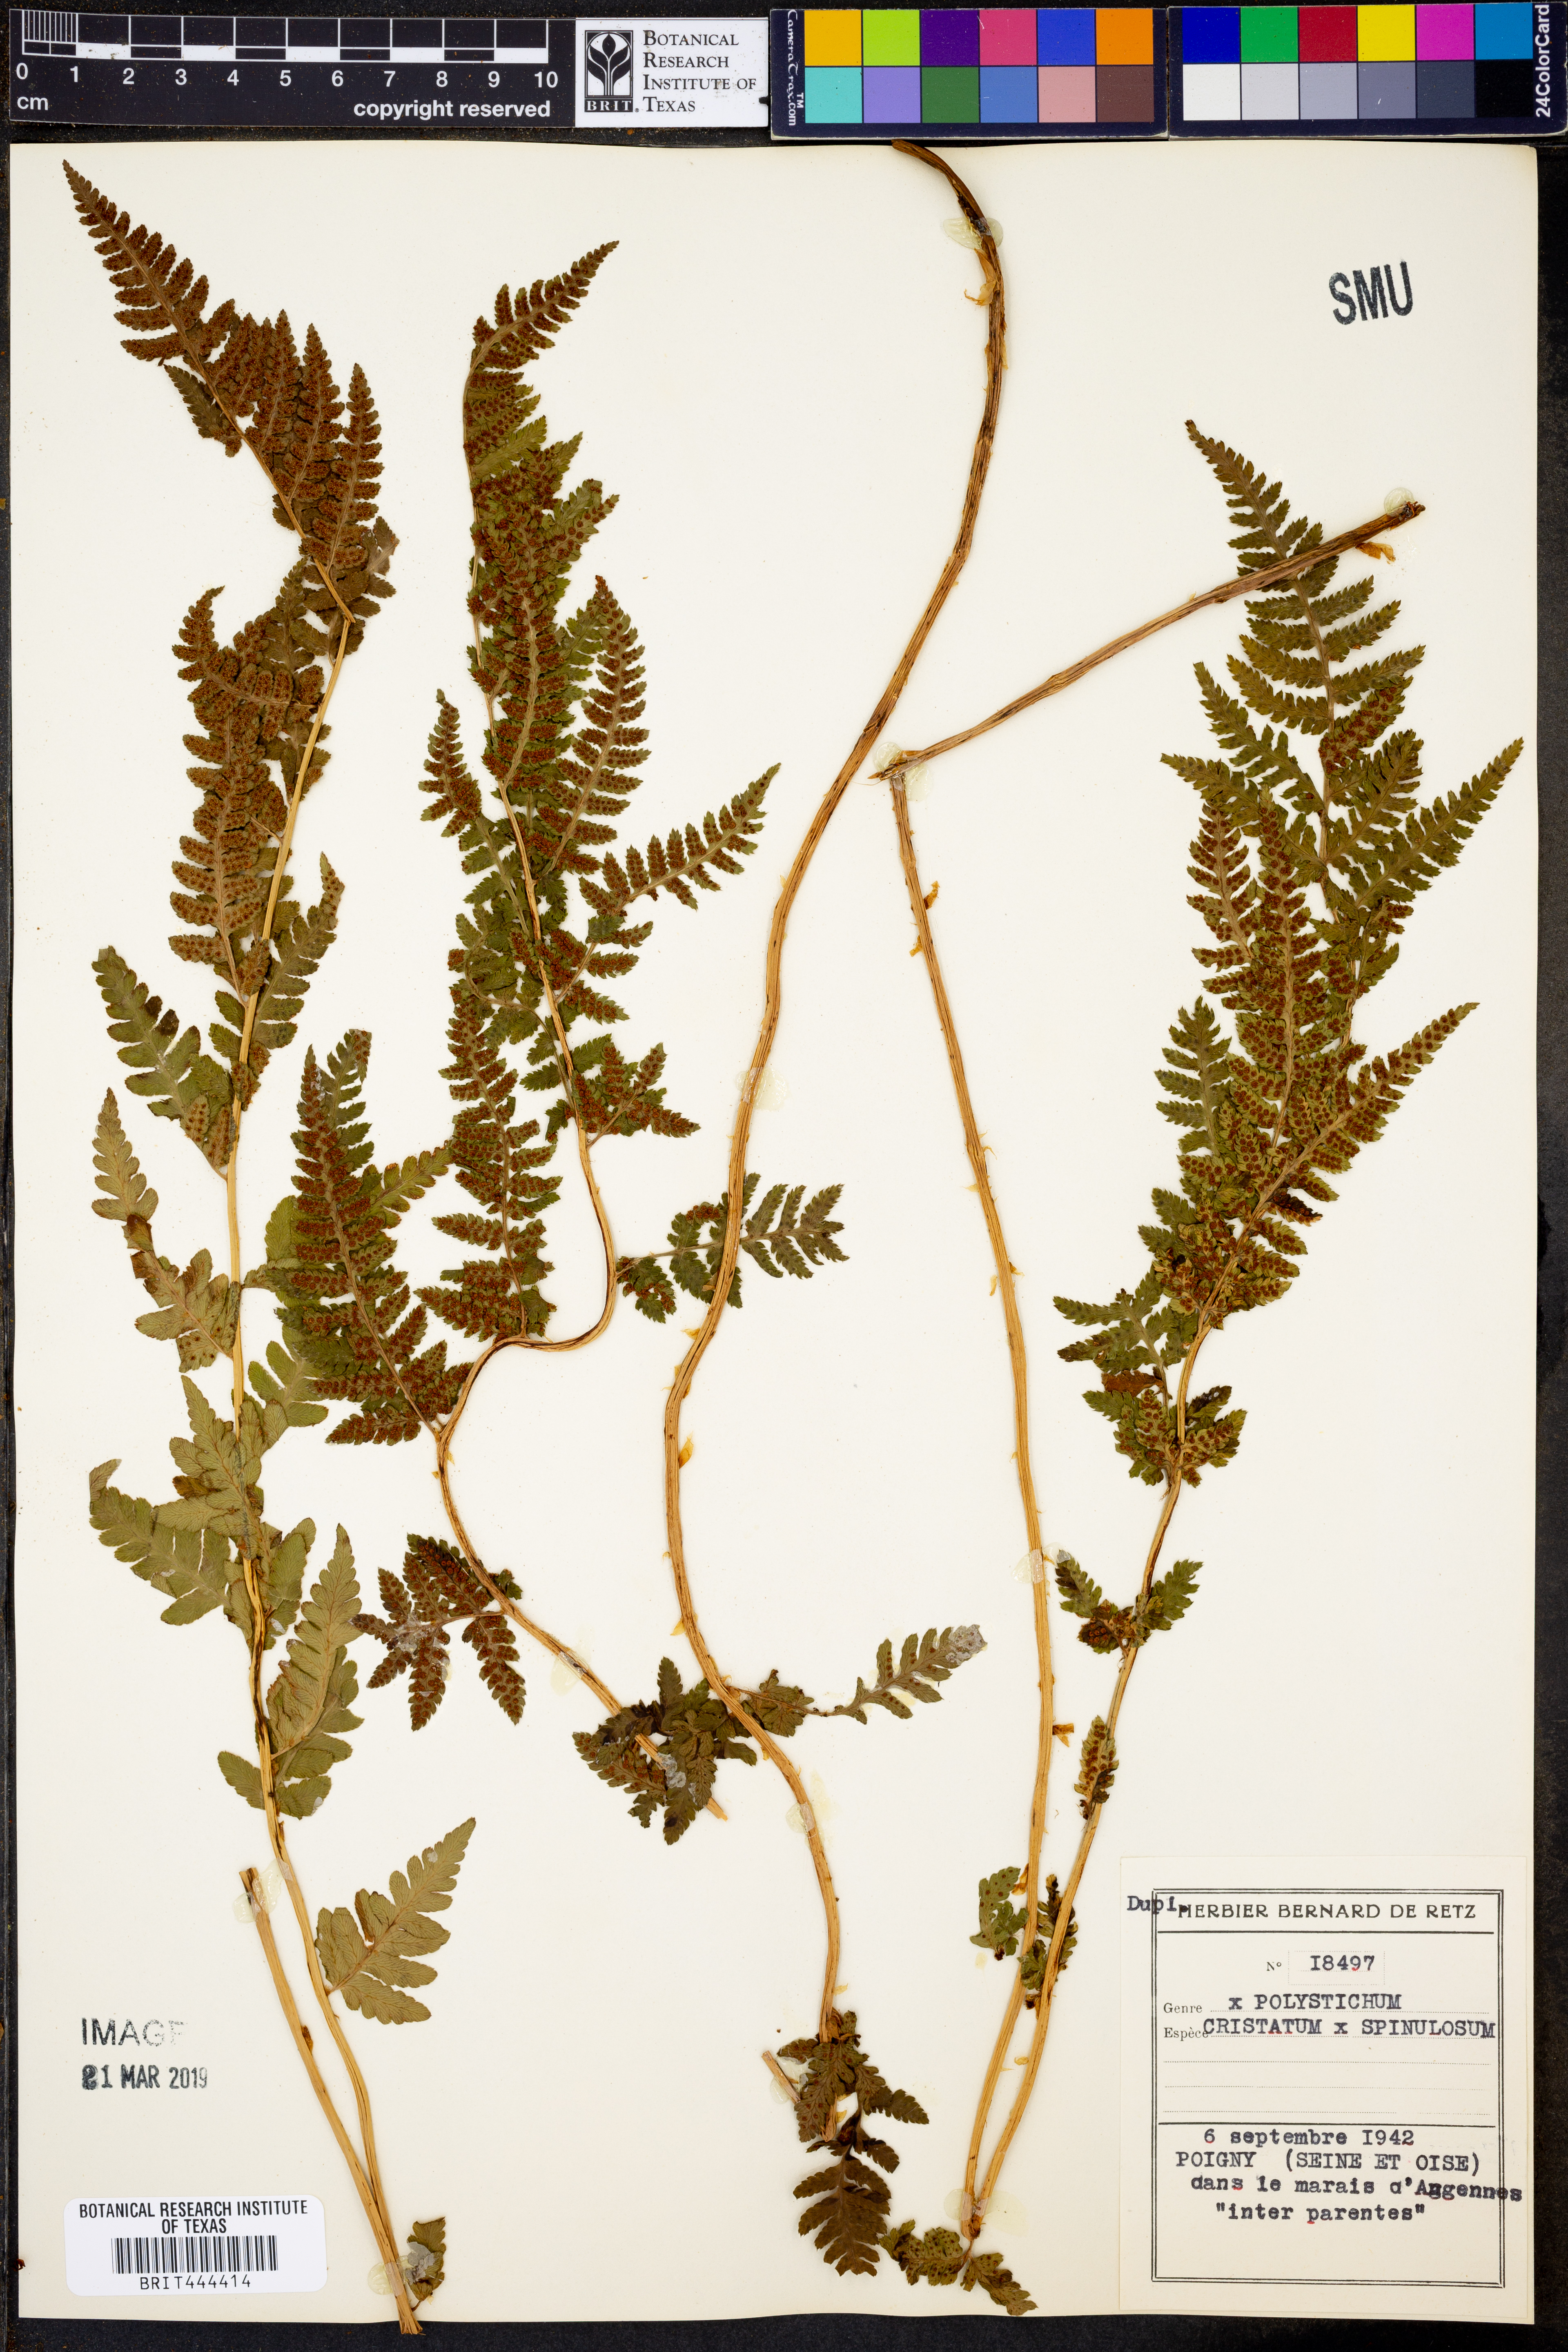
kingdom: Plantae
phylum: Tracheophyta
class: Polypodiopsida
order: Polypodiales
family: Dryopteridaceae
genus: Polystichum
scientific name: Polystichum speciosissimum
